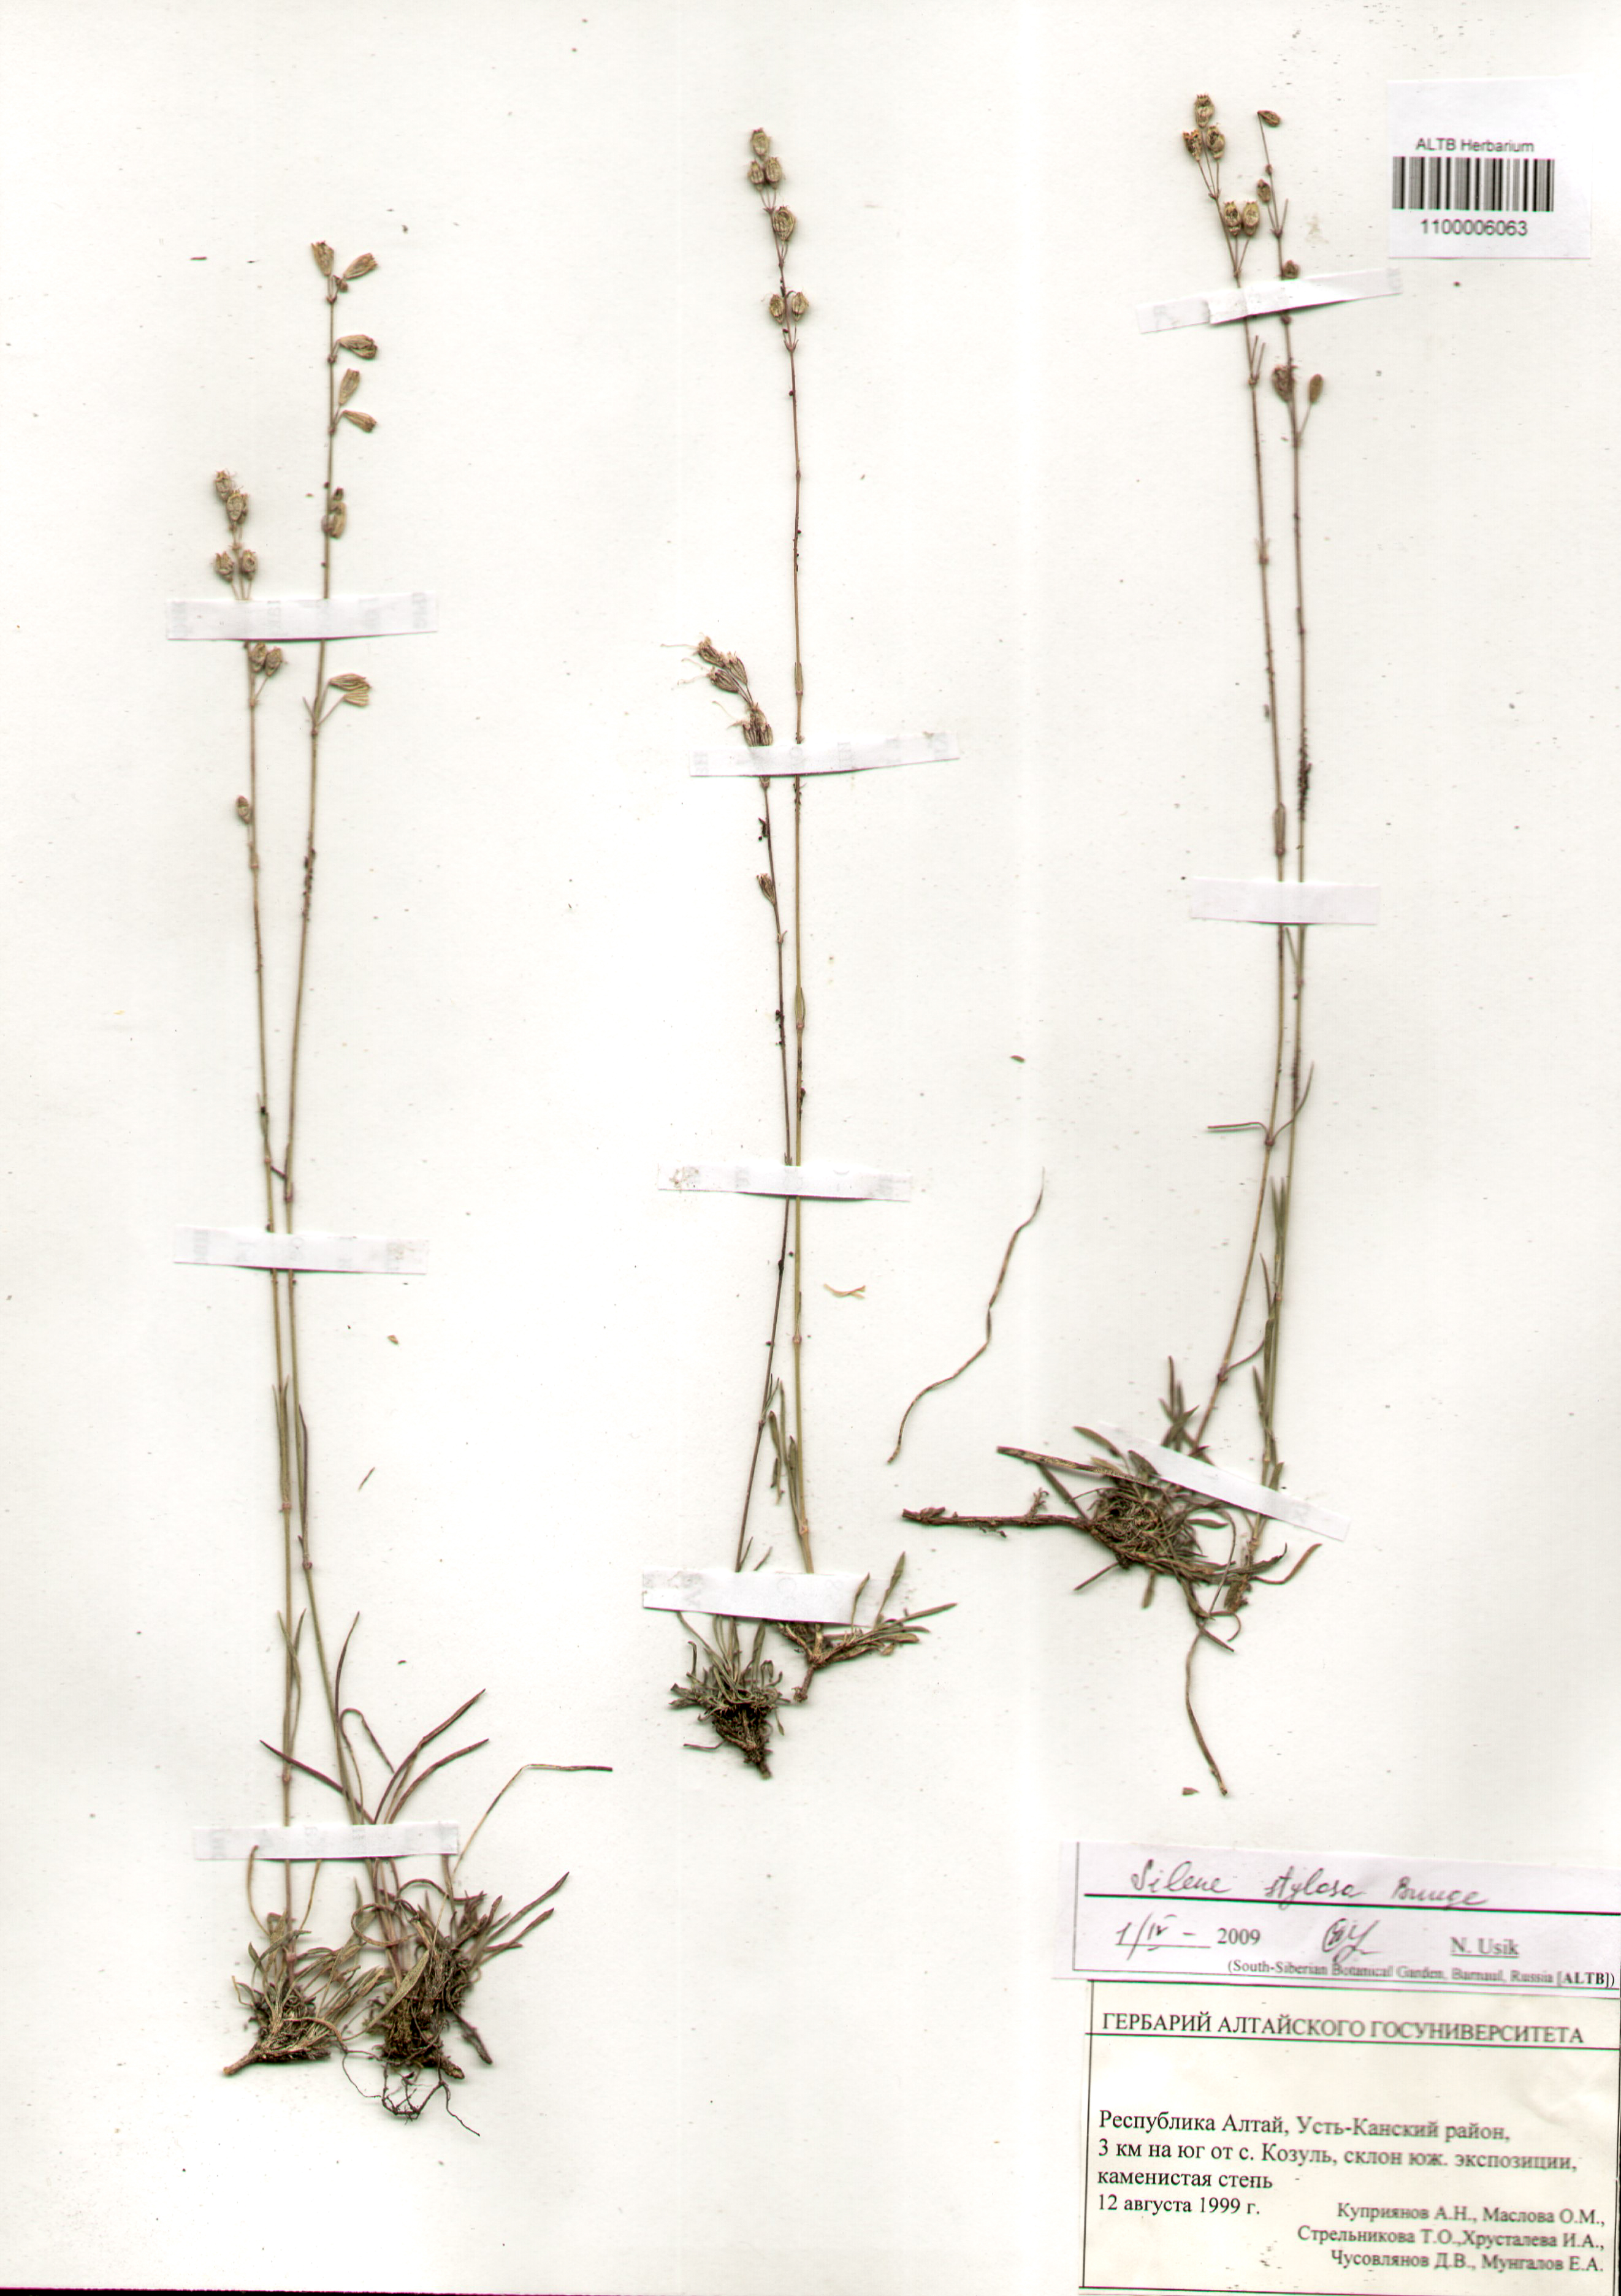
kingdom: Plantae
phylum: Tracheophyta
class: Magnoliopsida
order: Caryophyllales
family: Caryophyllaceae
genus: Silene
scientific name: Silene graminifolia
